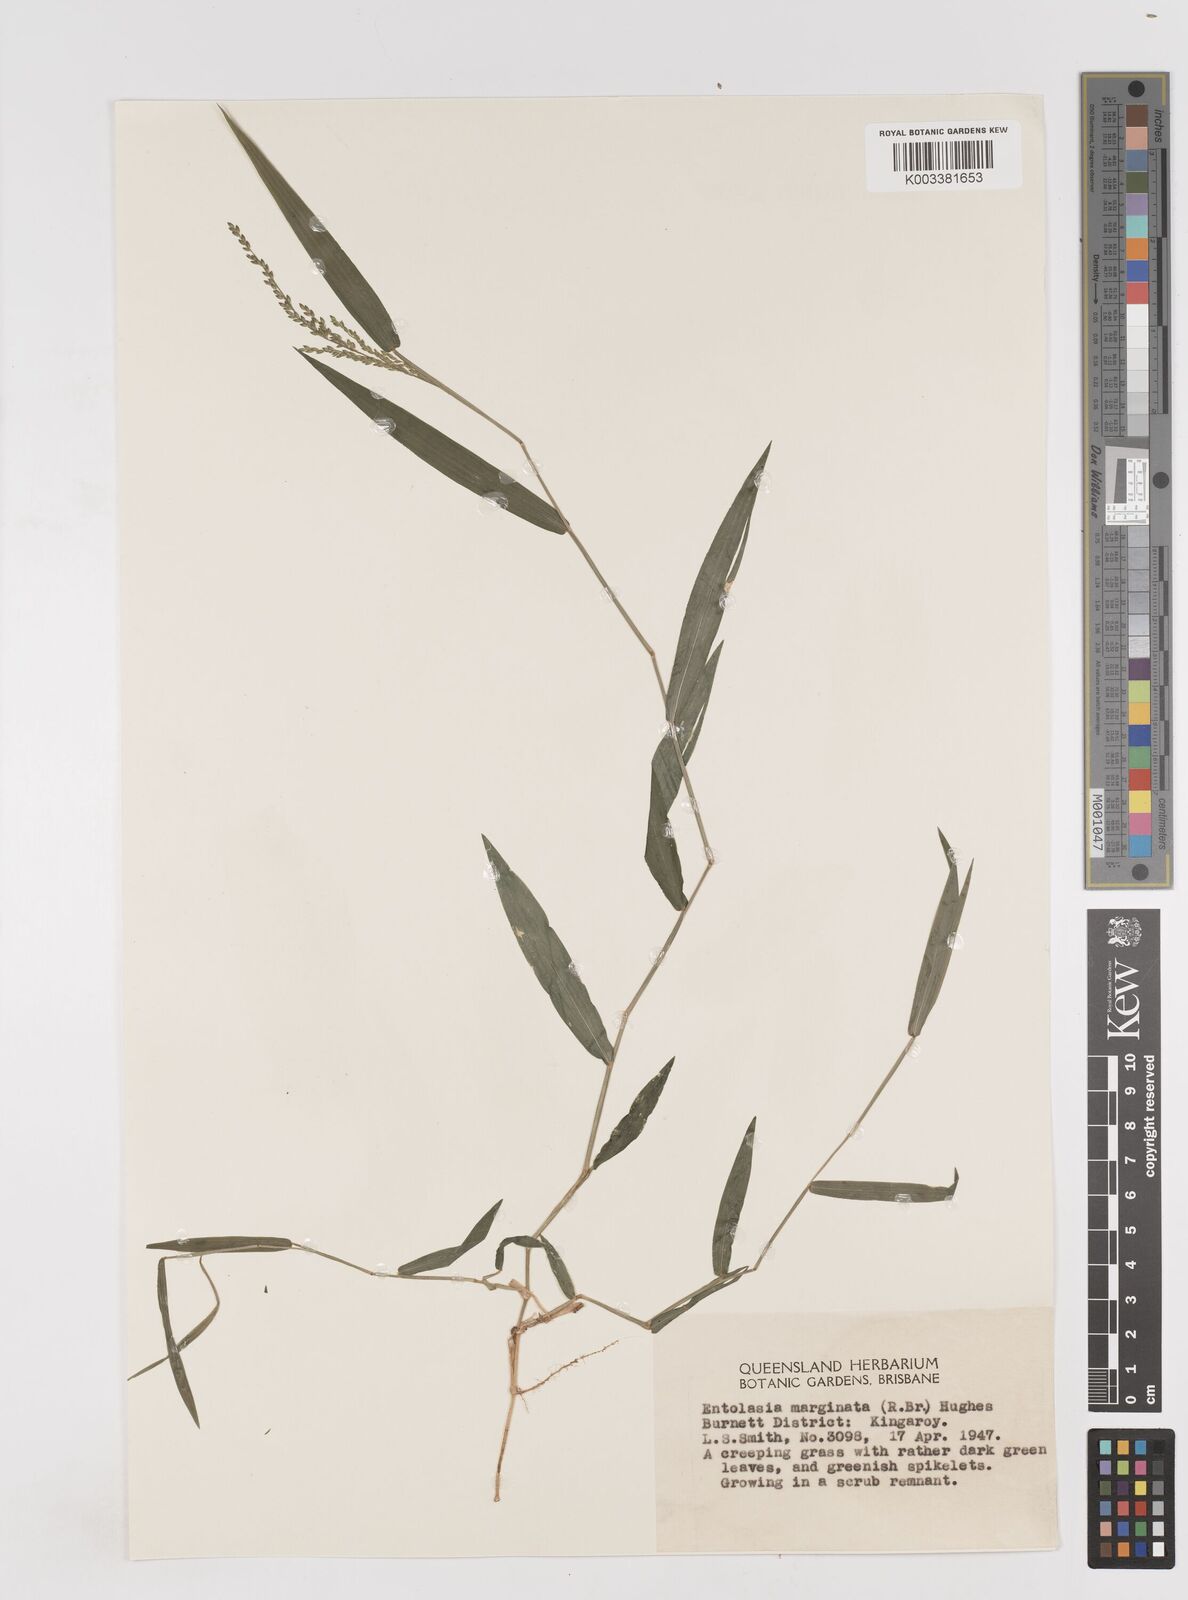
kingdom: Plantae
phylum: Tracheophyta
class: Liliopsida
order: Poales
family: Poaceae
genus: Entolasia
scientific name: Entolasia marginata
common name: Australian panicgrass
